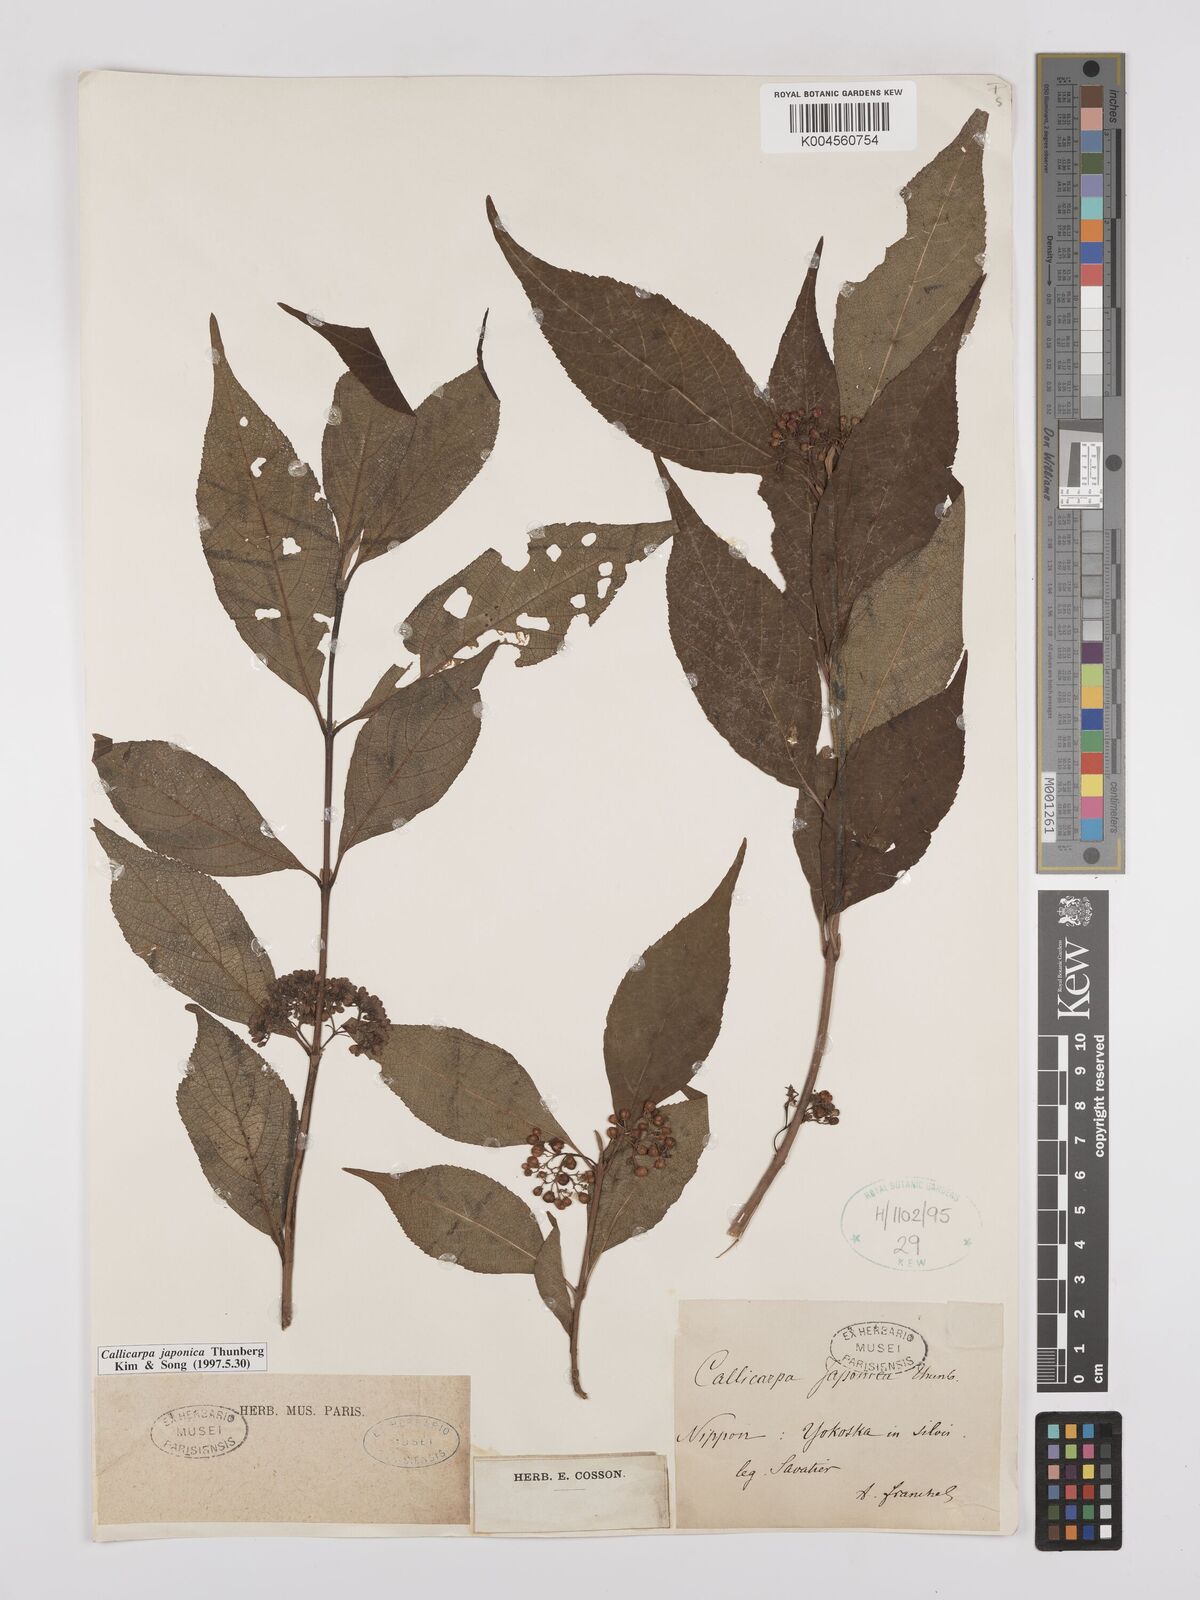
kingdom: Plantae
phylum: Tracheophyta
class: Magnoliopsida
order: Lamiales
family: Lamiaceae
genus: Callicarpa
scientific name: Callicarpa japonica
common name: Japanese beauty-berry
